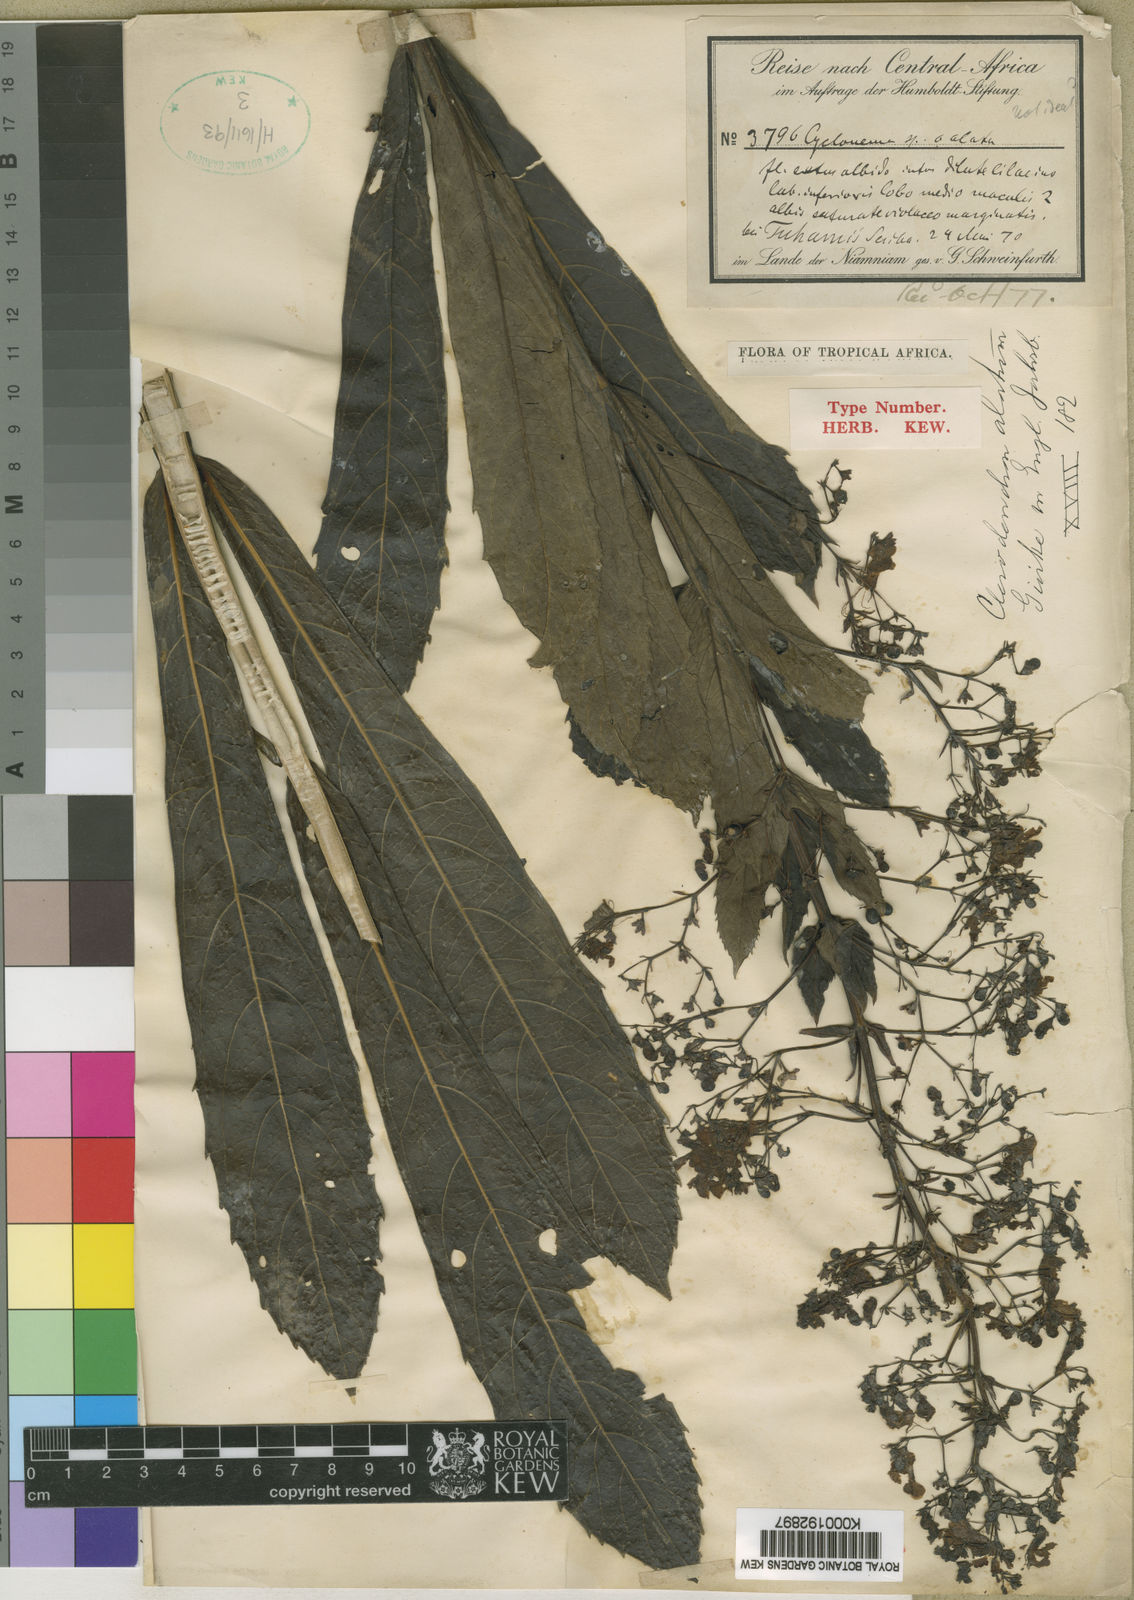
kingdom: Plantae
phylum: Tracheophyta
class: Magnoliopsida
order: Lamiales
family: Lamiaceae
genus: Clerodendrum
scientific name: Clerodendrum
